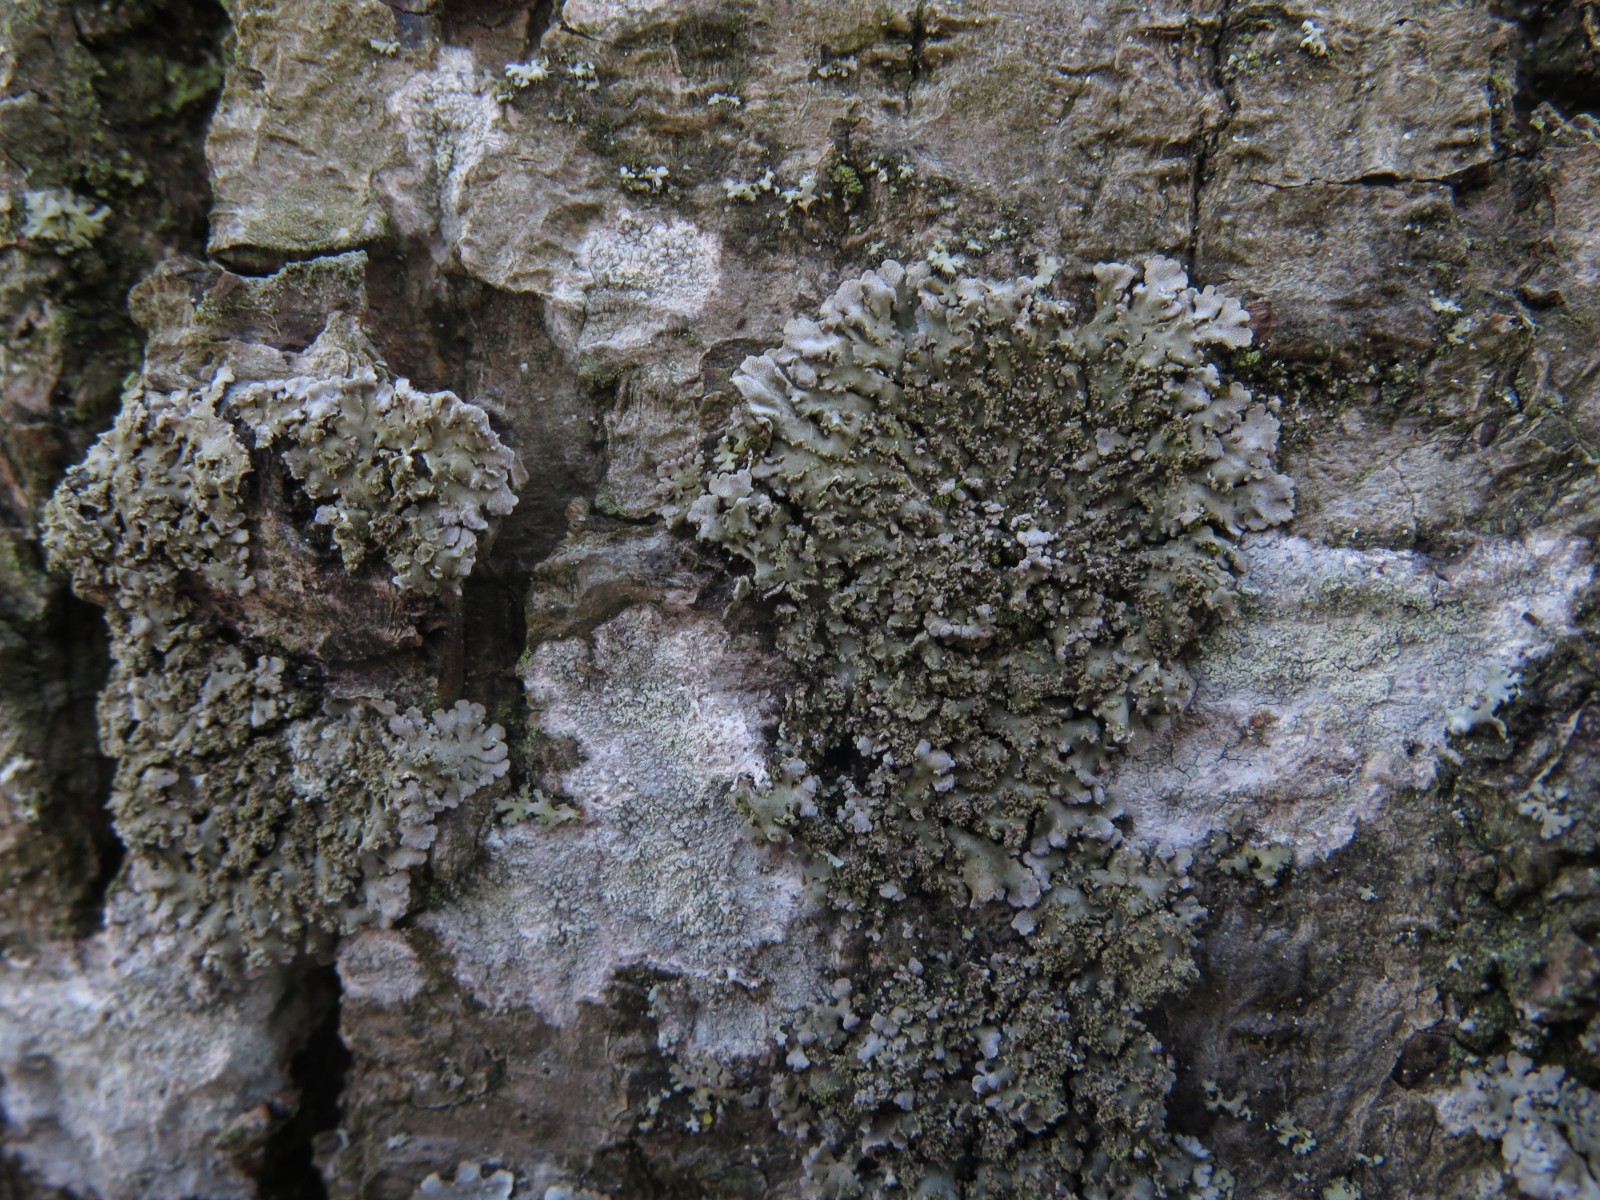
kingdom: Fungi
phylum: Ascomycota
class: Lecanoromycetes
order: Caliciales
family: Physciaceae
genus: Physconia
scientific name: Physconia perisidiosa
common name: liden dugrosetlav
